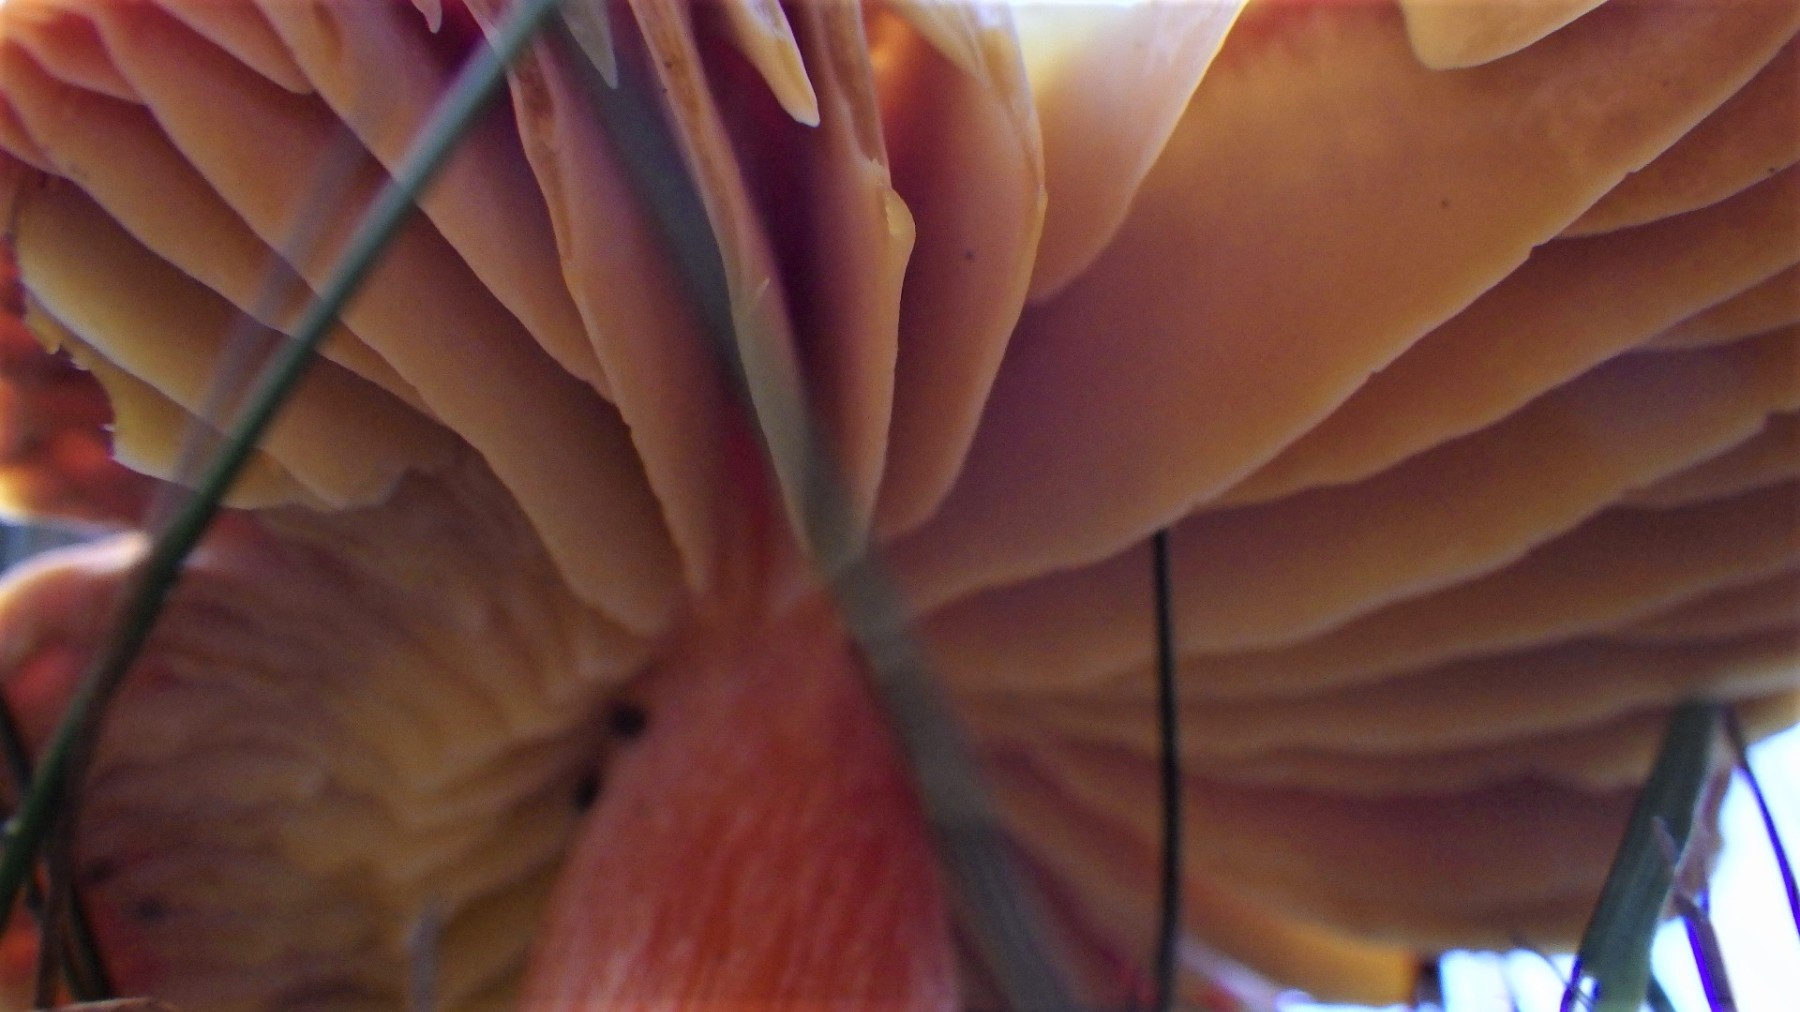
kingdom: Fungi
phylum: Basidiomycota
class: Agaricomycetes
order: Agaricales
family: Hygrophoraceae
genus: Hygrocybe
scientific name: Hygrocybe punicea
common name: skarlagen-vokshat
